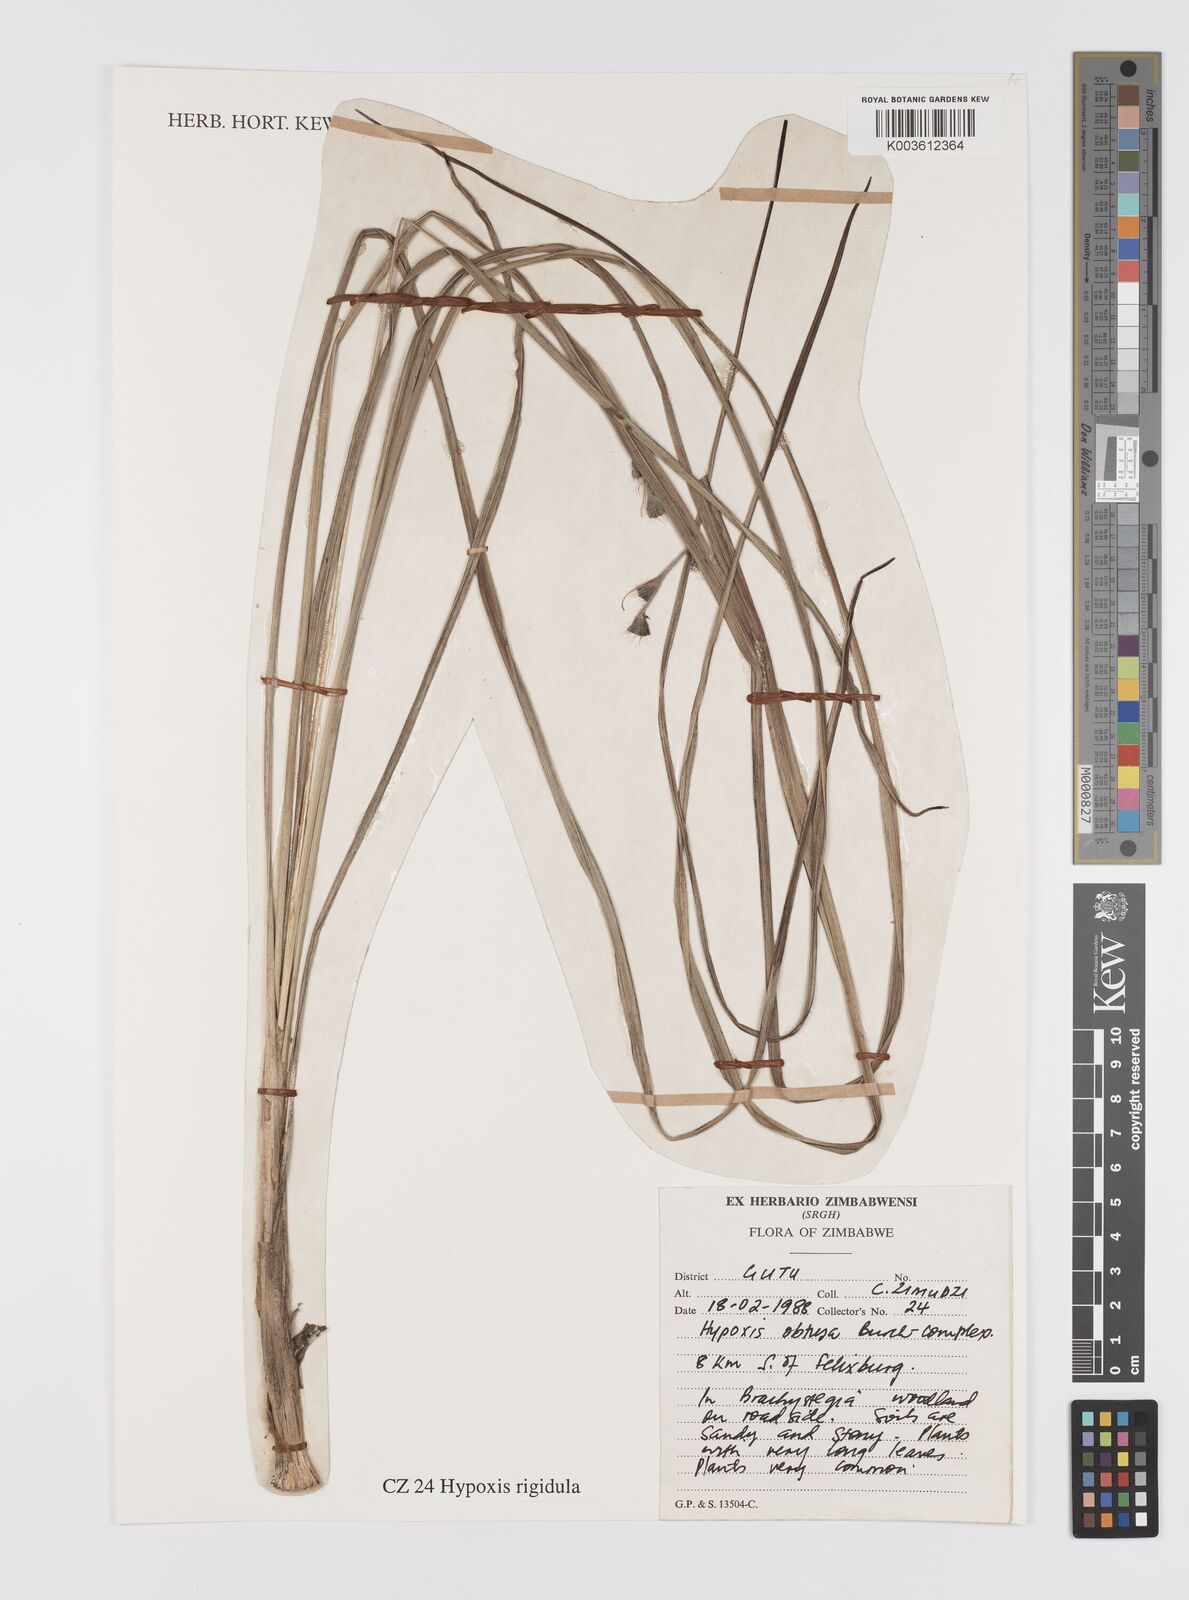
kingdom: Plantae
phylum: Tracheophyta
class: Liliopsida
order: Asparagales
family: Hypoxidaceae
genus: Hypoxis
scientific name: Hypoxis rigidula
